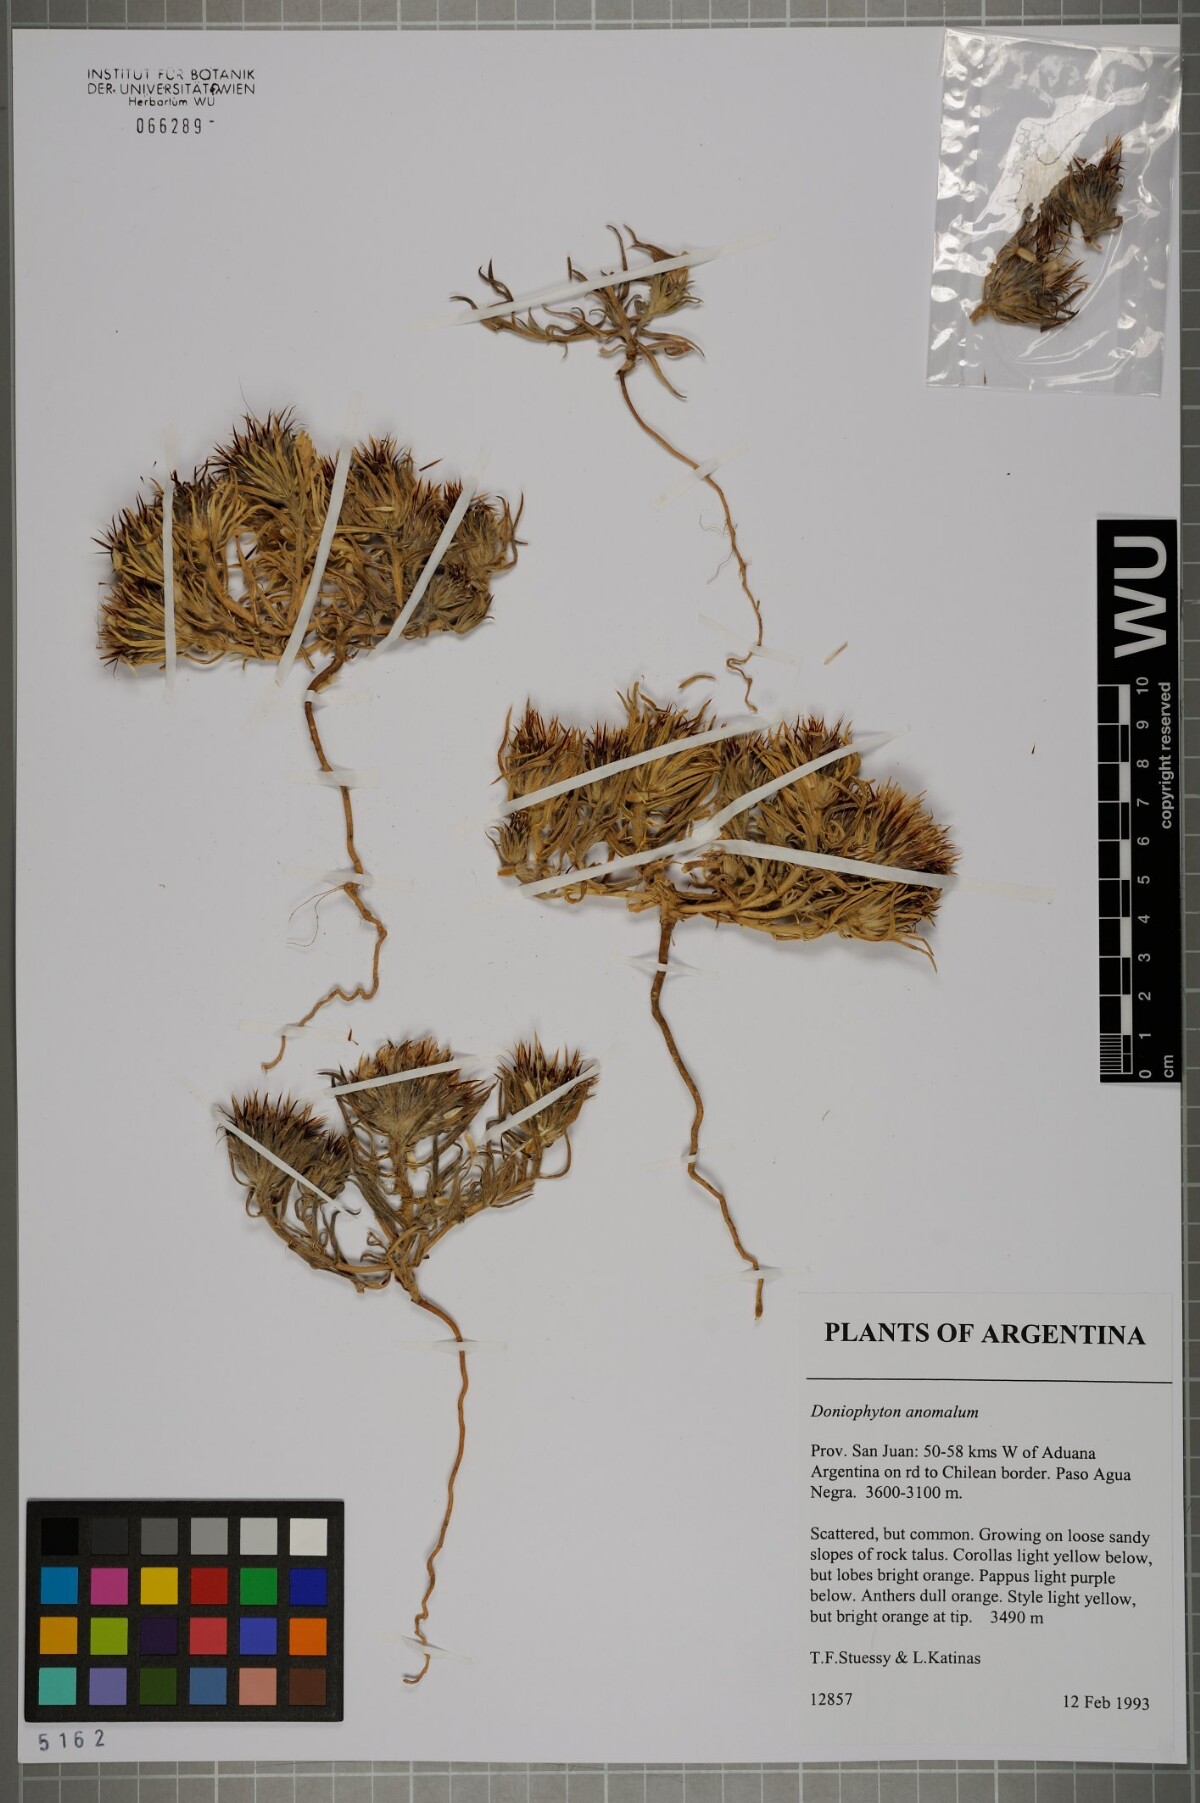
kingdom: Plantae
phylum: Tracheophyta
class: Magnoliopsida
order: Asterales
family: Asteraceae
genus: Doniophyton
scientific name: Doniophyton weddellii
